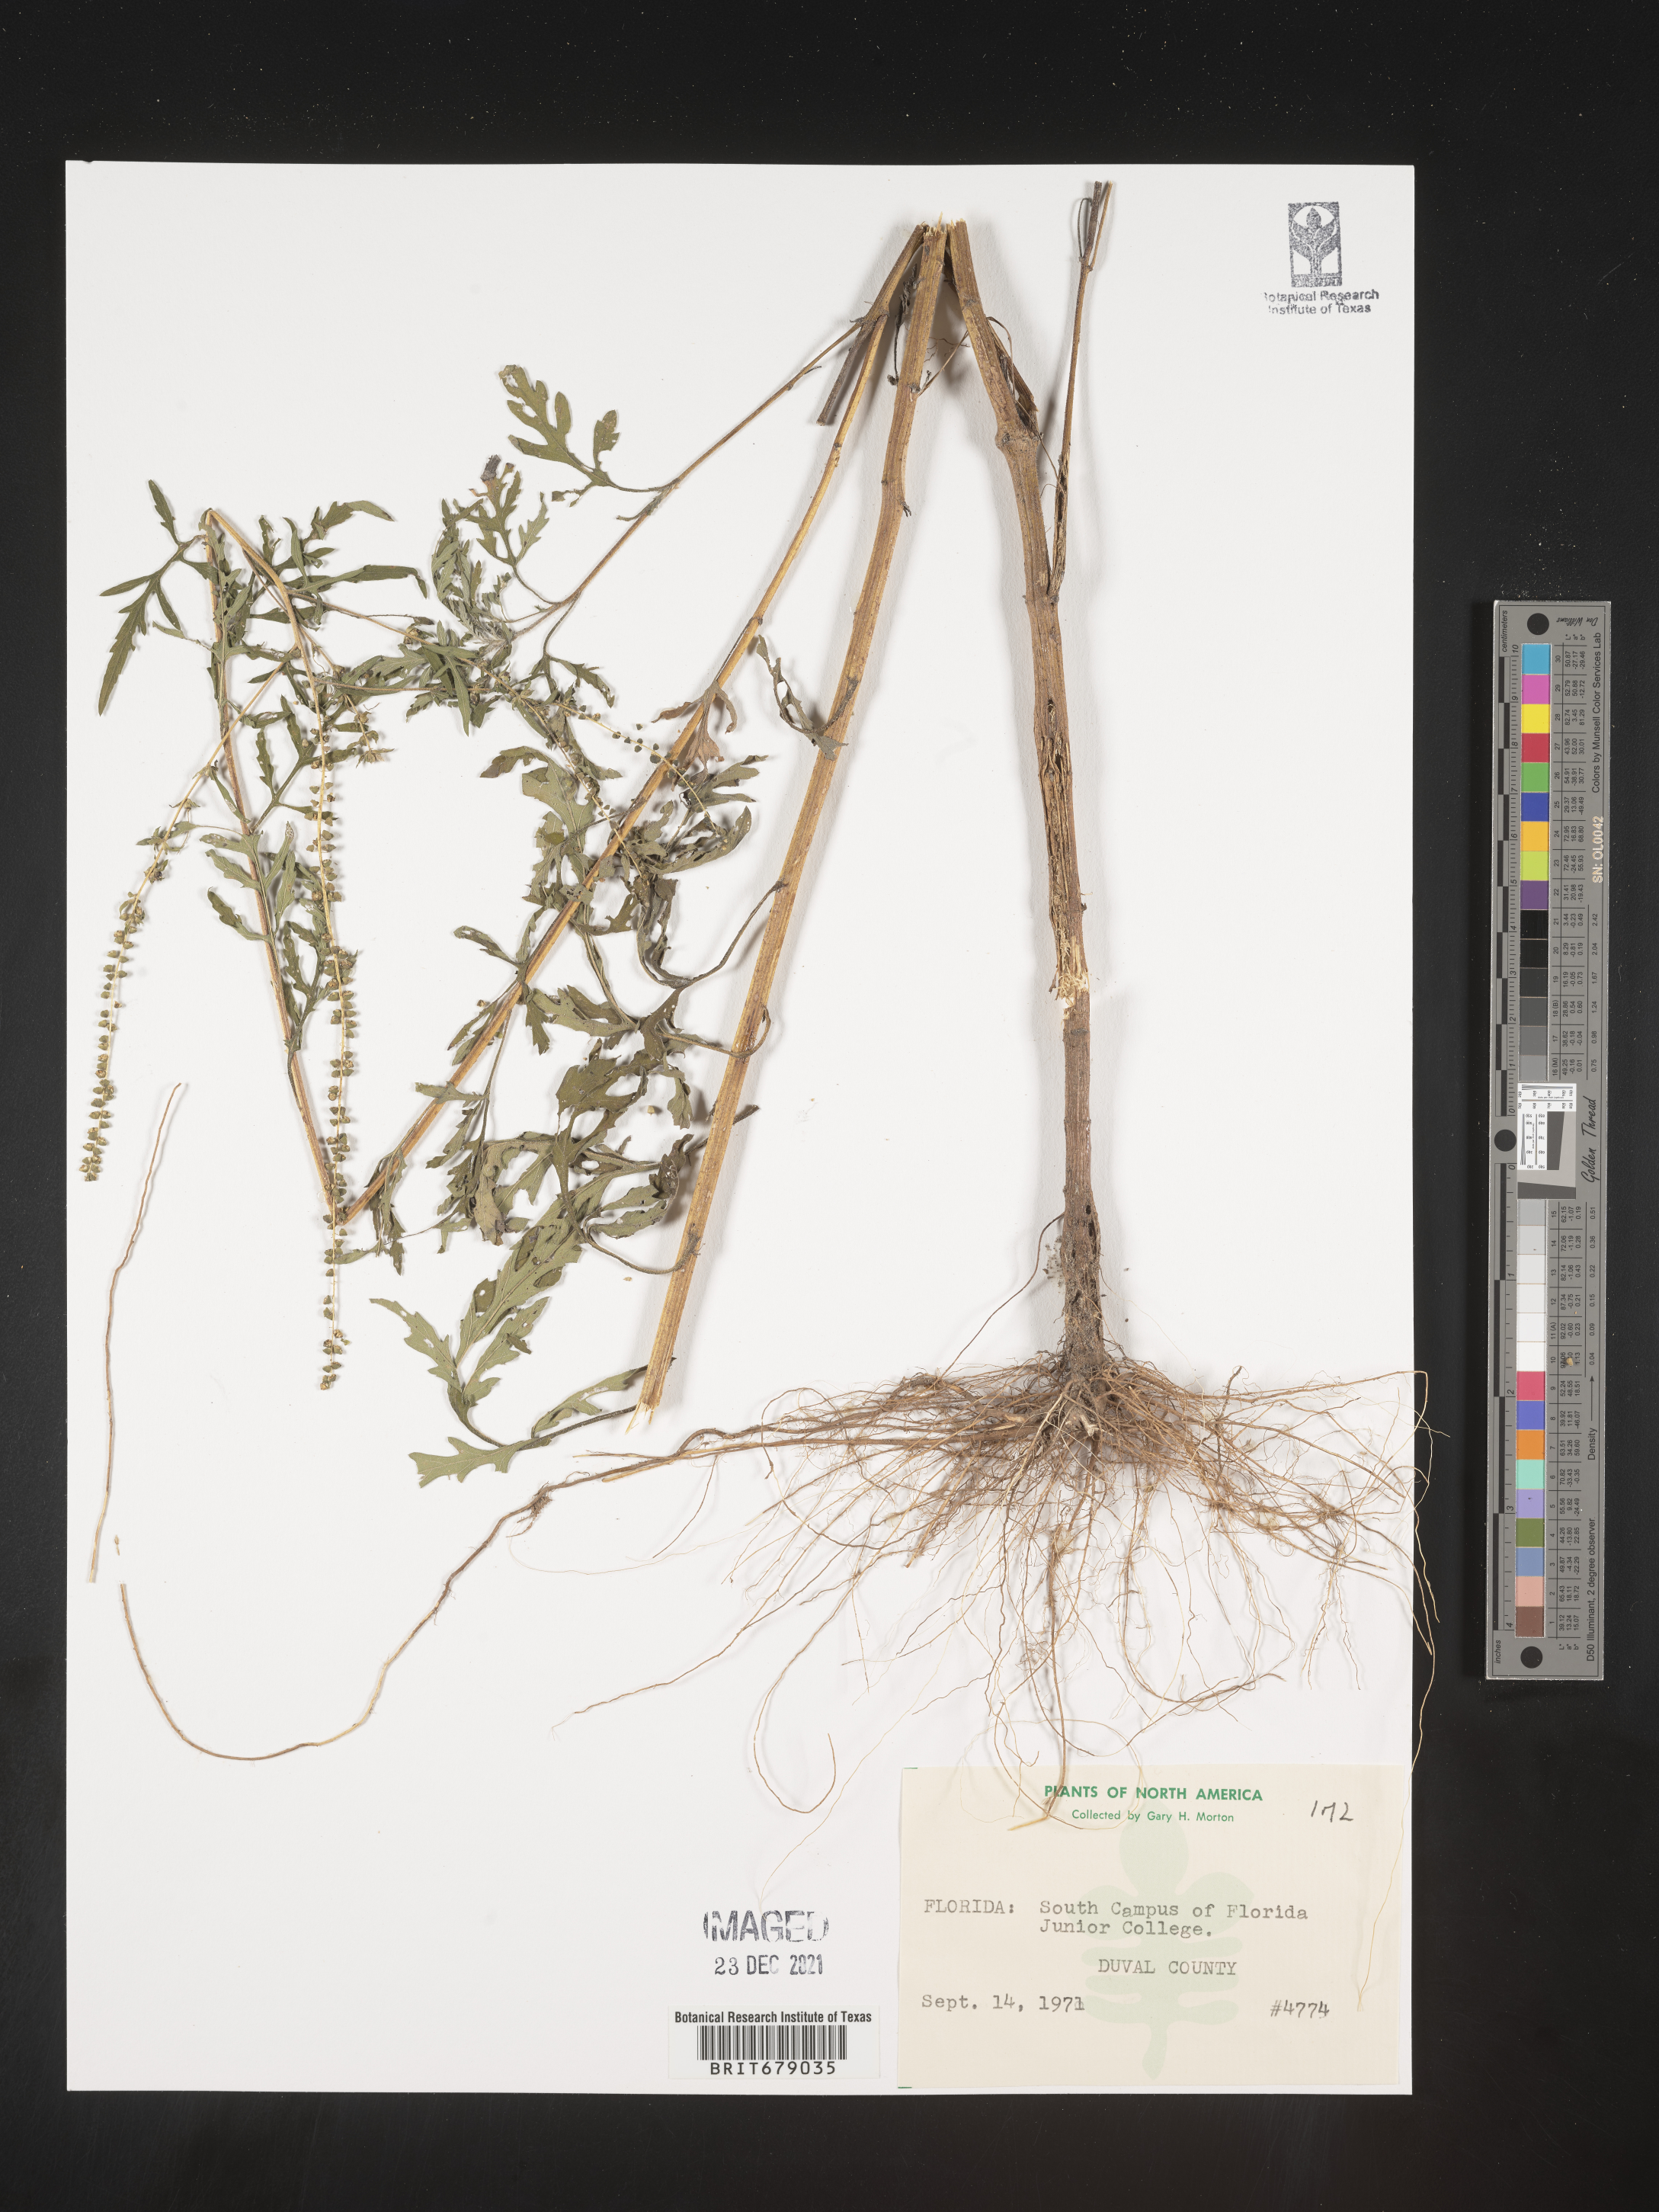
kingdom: Plantae
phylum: Tracheophyta
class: Magnoliopsida
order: Asterales
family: Asteraceae
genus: Ambrosia
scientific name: Ambrosia
